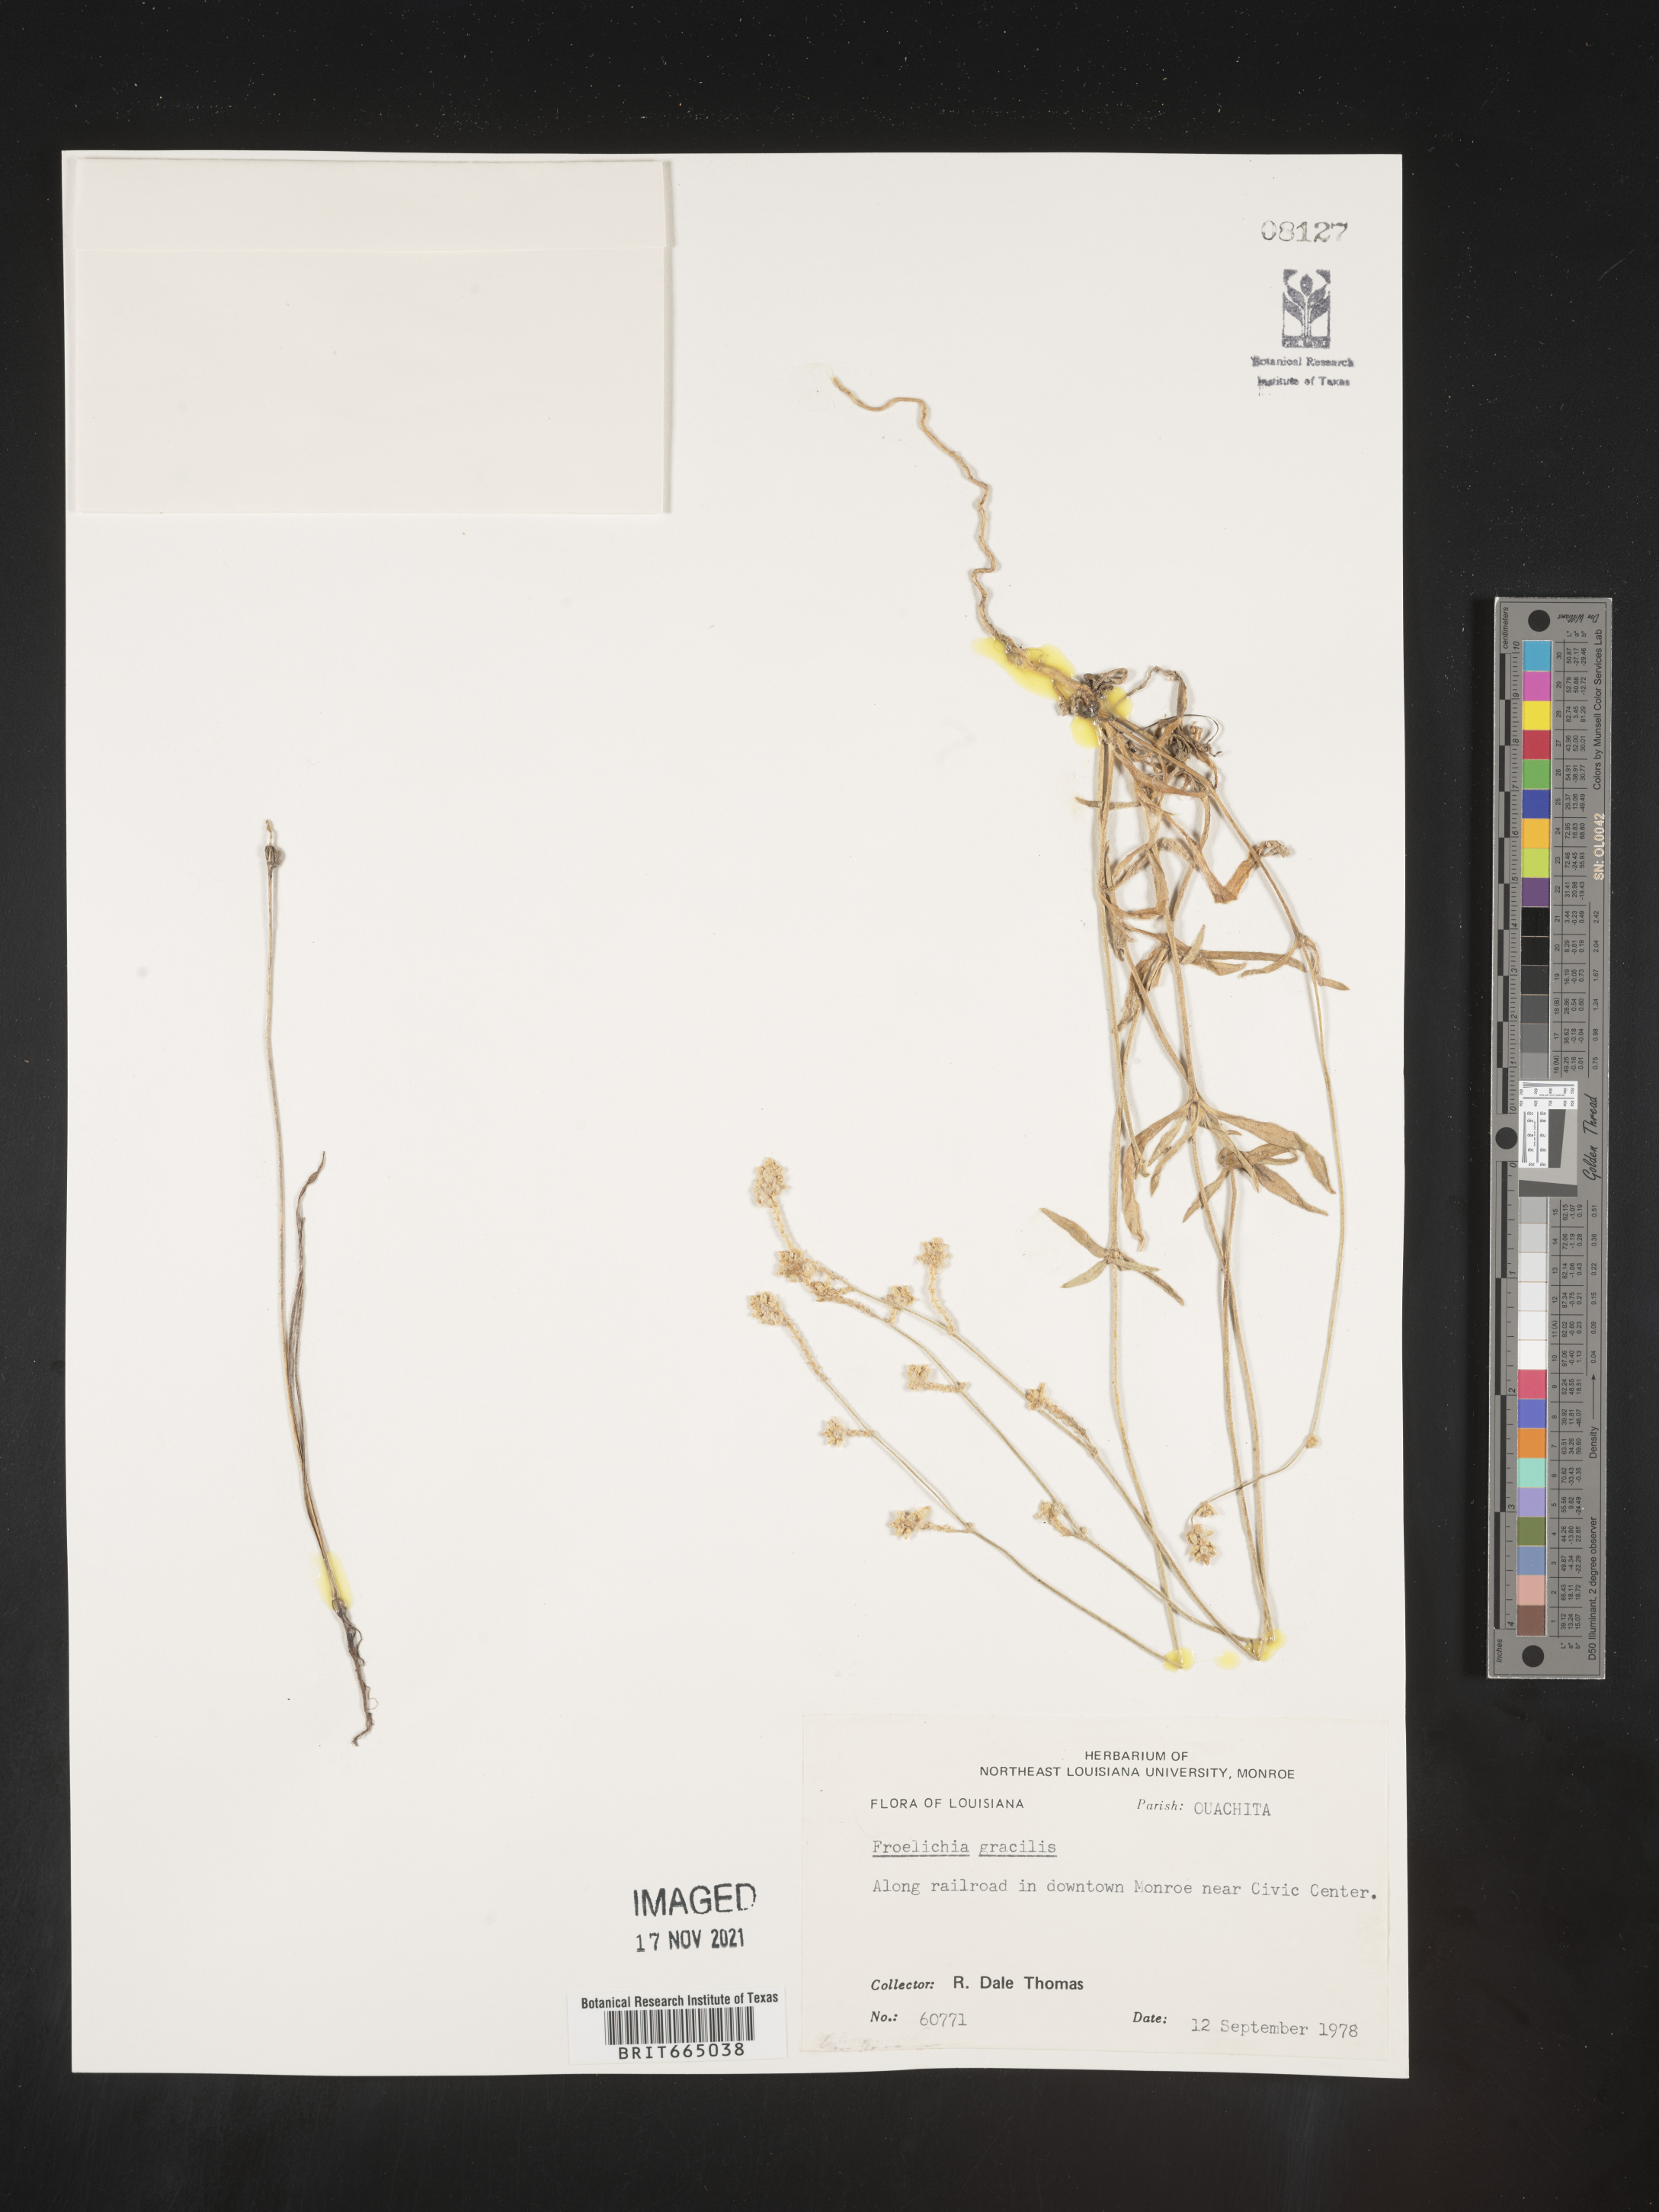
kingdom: Plantae
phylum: Tracheophyta
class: Magnoliopsida
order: Caryophyllales
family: Amaranthaceae
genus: Froelichia
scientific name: Froelichia gracilis
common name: Slender cottonweed
